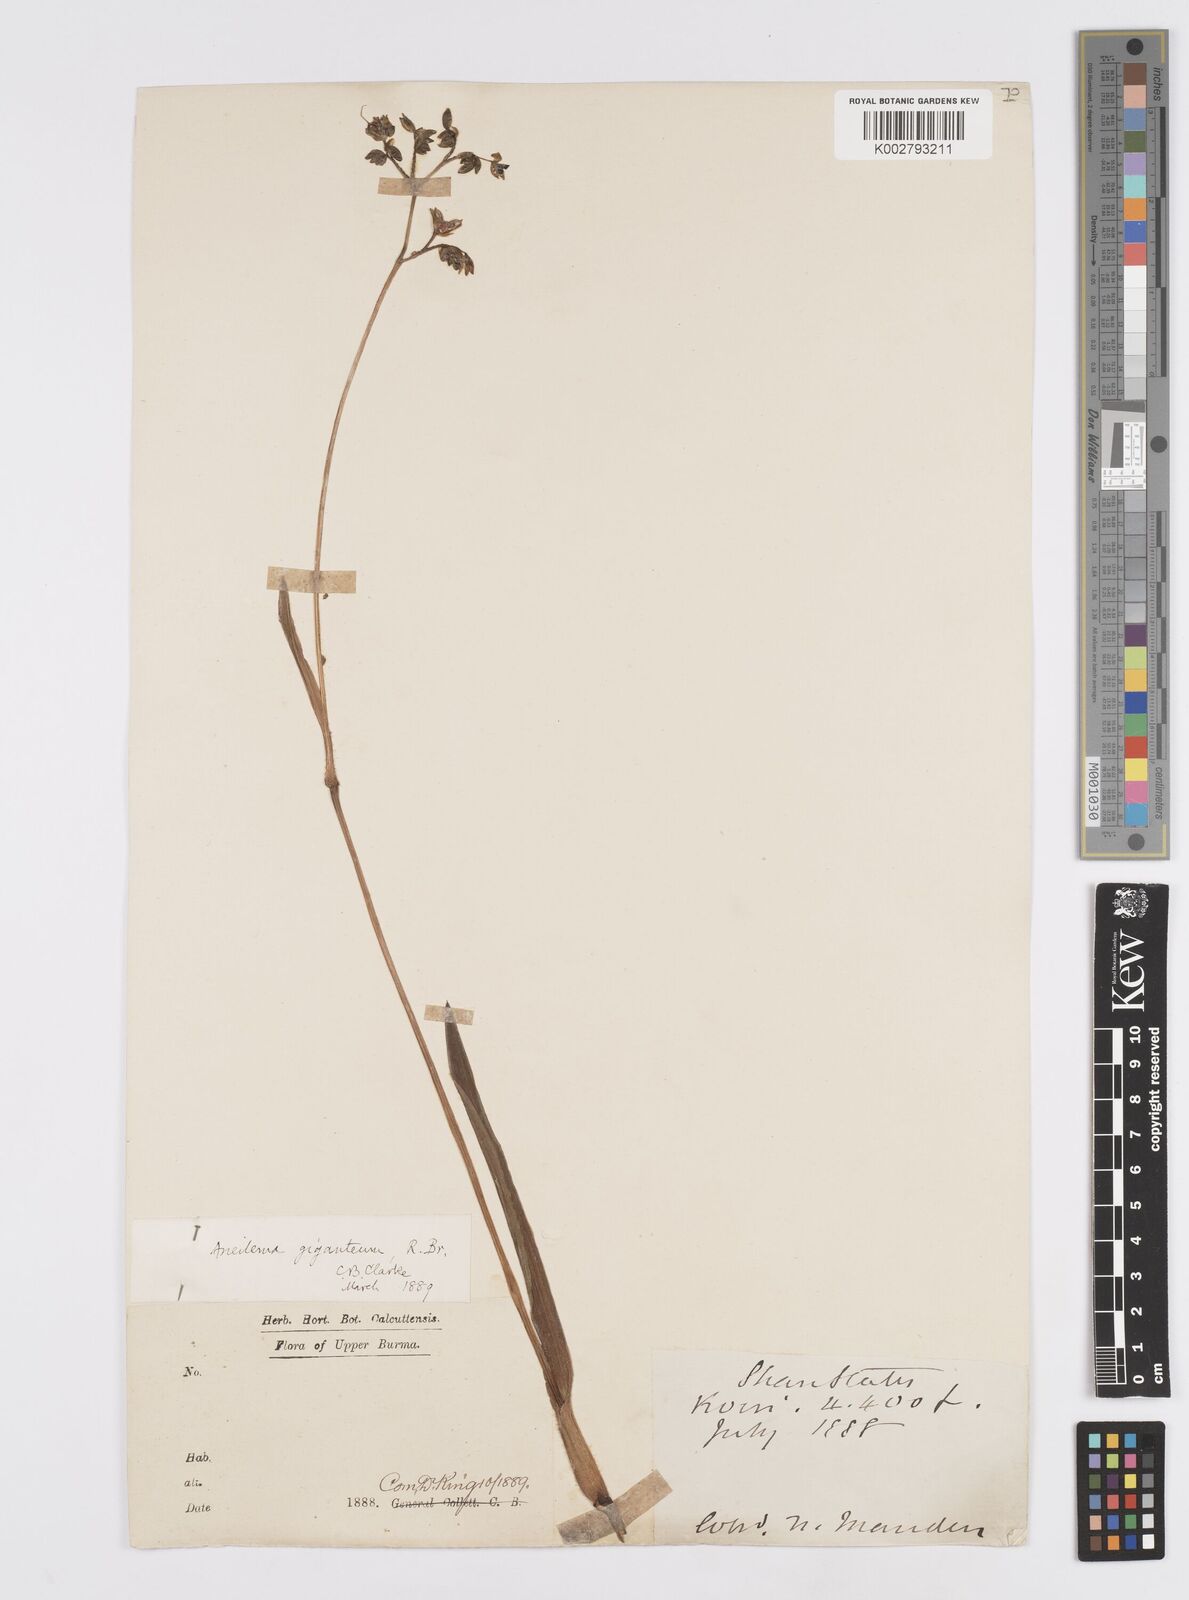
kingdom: Plantae
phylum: Tracheophyta
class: Liliopsida
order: Commelinales
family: Commelinaceae
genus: Murdannia
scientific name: Murdannia simplex
